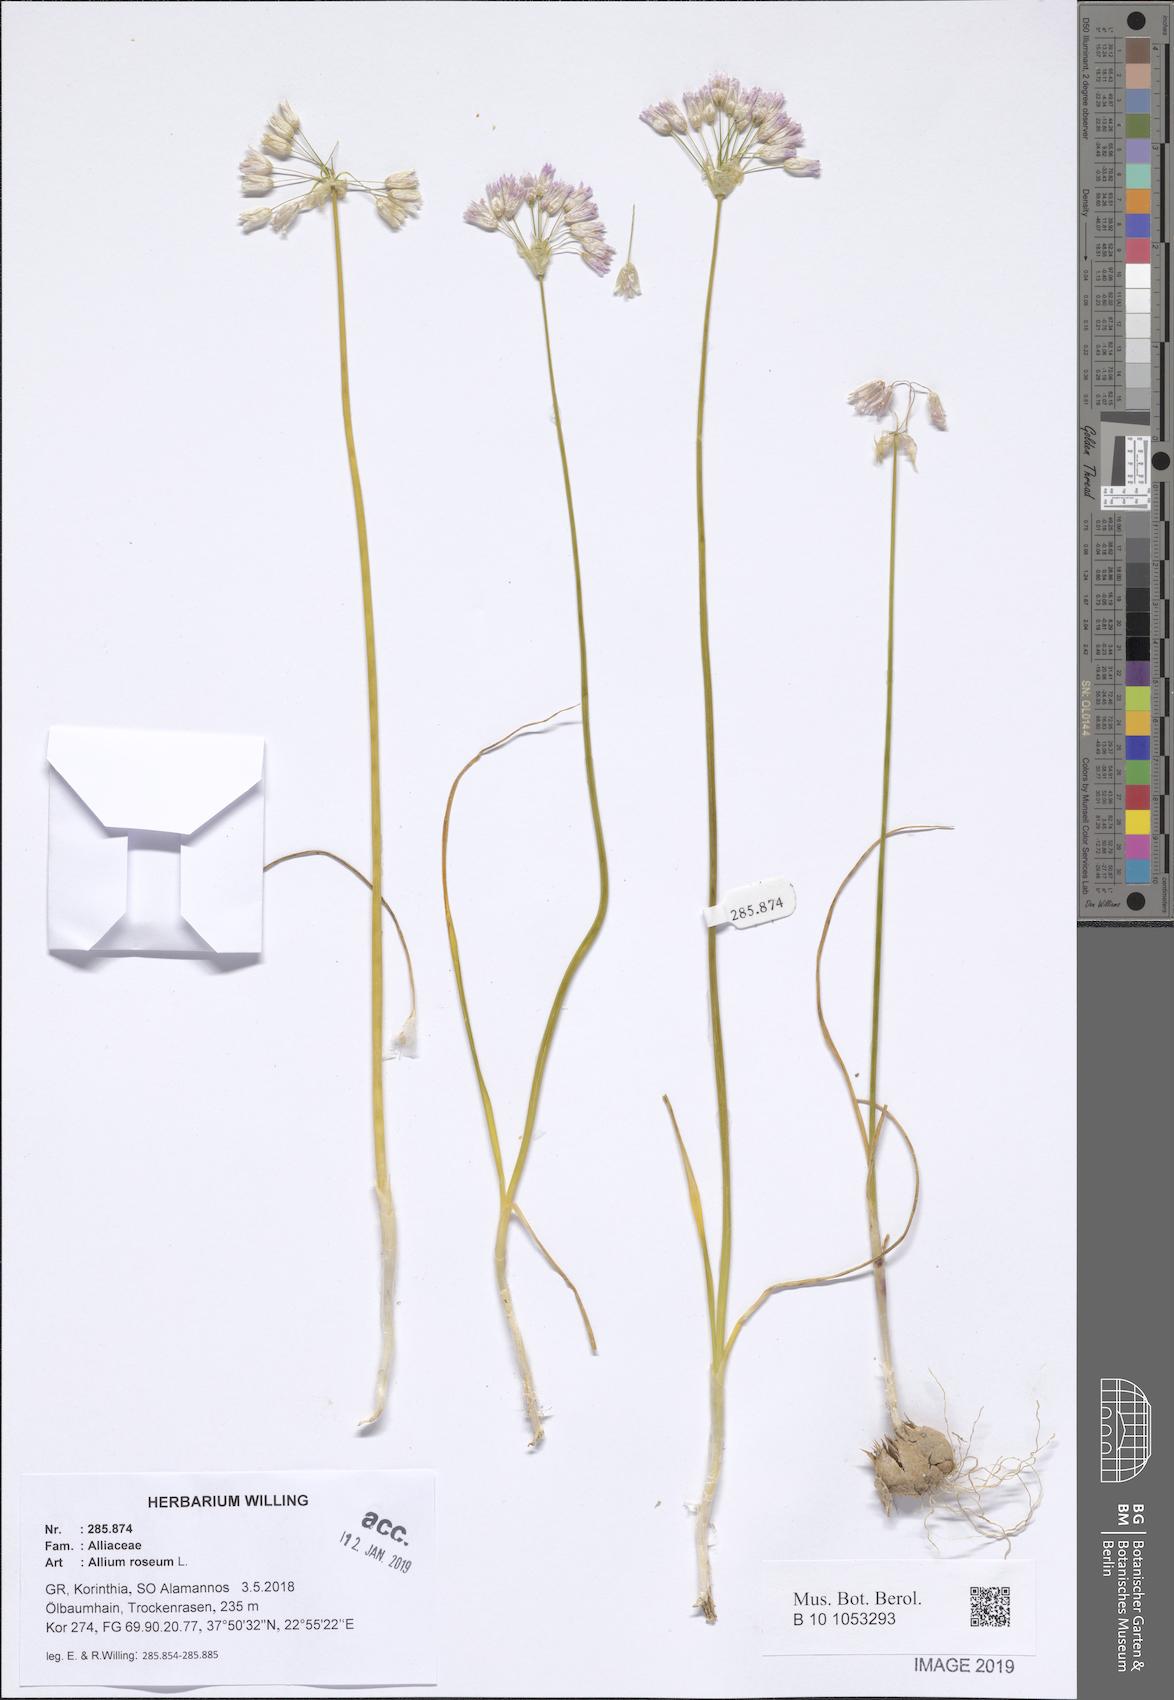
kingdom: Plantae
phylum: Tracheophyta
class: Liliopsida
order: Asparagales
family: Amaryllidaceae
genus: Allium
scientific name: Allium roseum
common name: Rosy garlic
